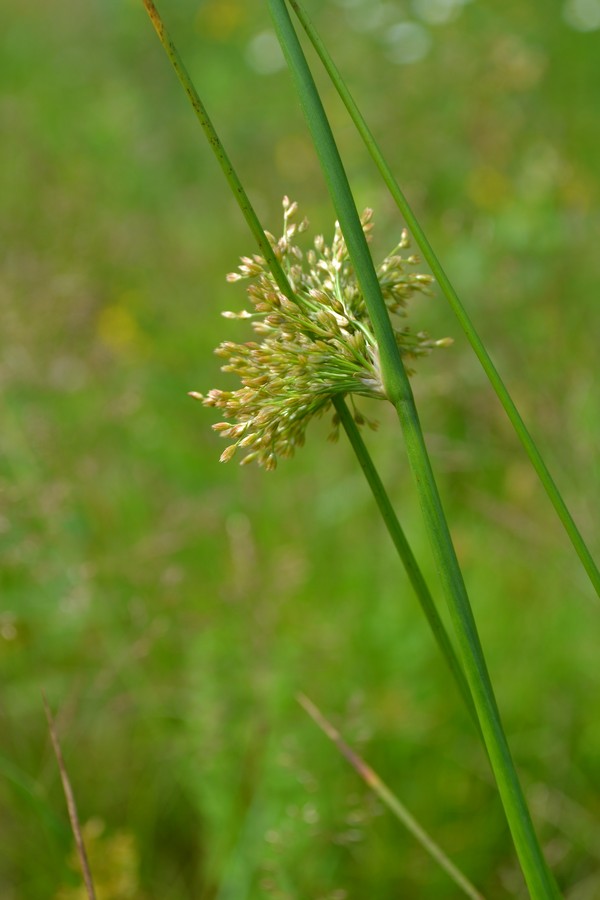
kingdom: Plantae
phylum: Tracheophyta
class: Liliopsida
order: Poales
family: Juncaceae
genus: Juncus
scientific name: Juncus effusus
